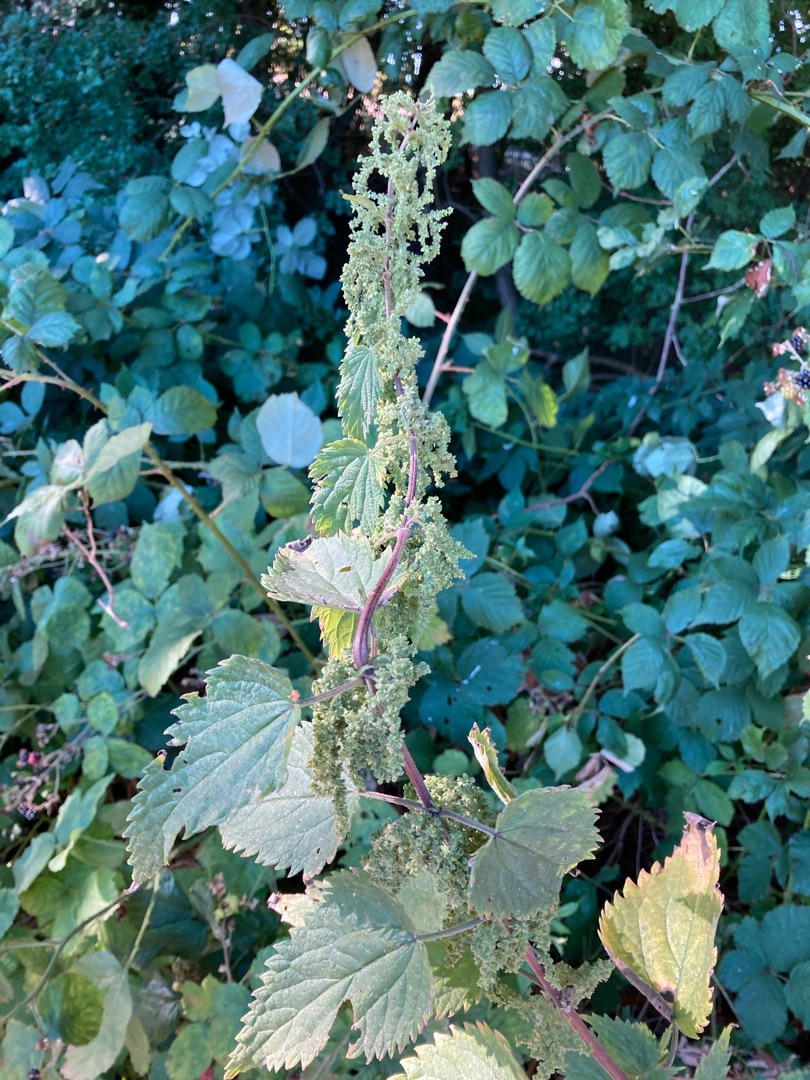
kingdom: Plantae
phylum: Tracheophyta
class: Magnoliopsida
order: Rosales
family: Urticaceae
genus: Urtica
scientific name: Urtica dioica
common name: Stor nælde
